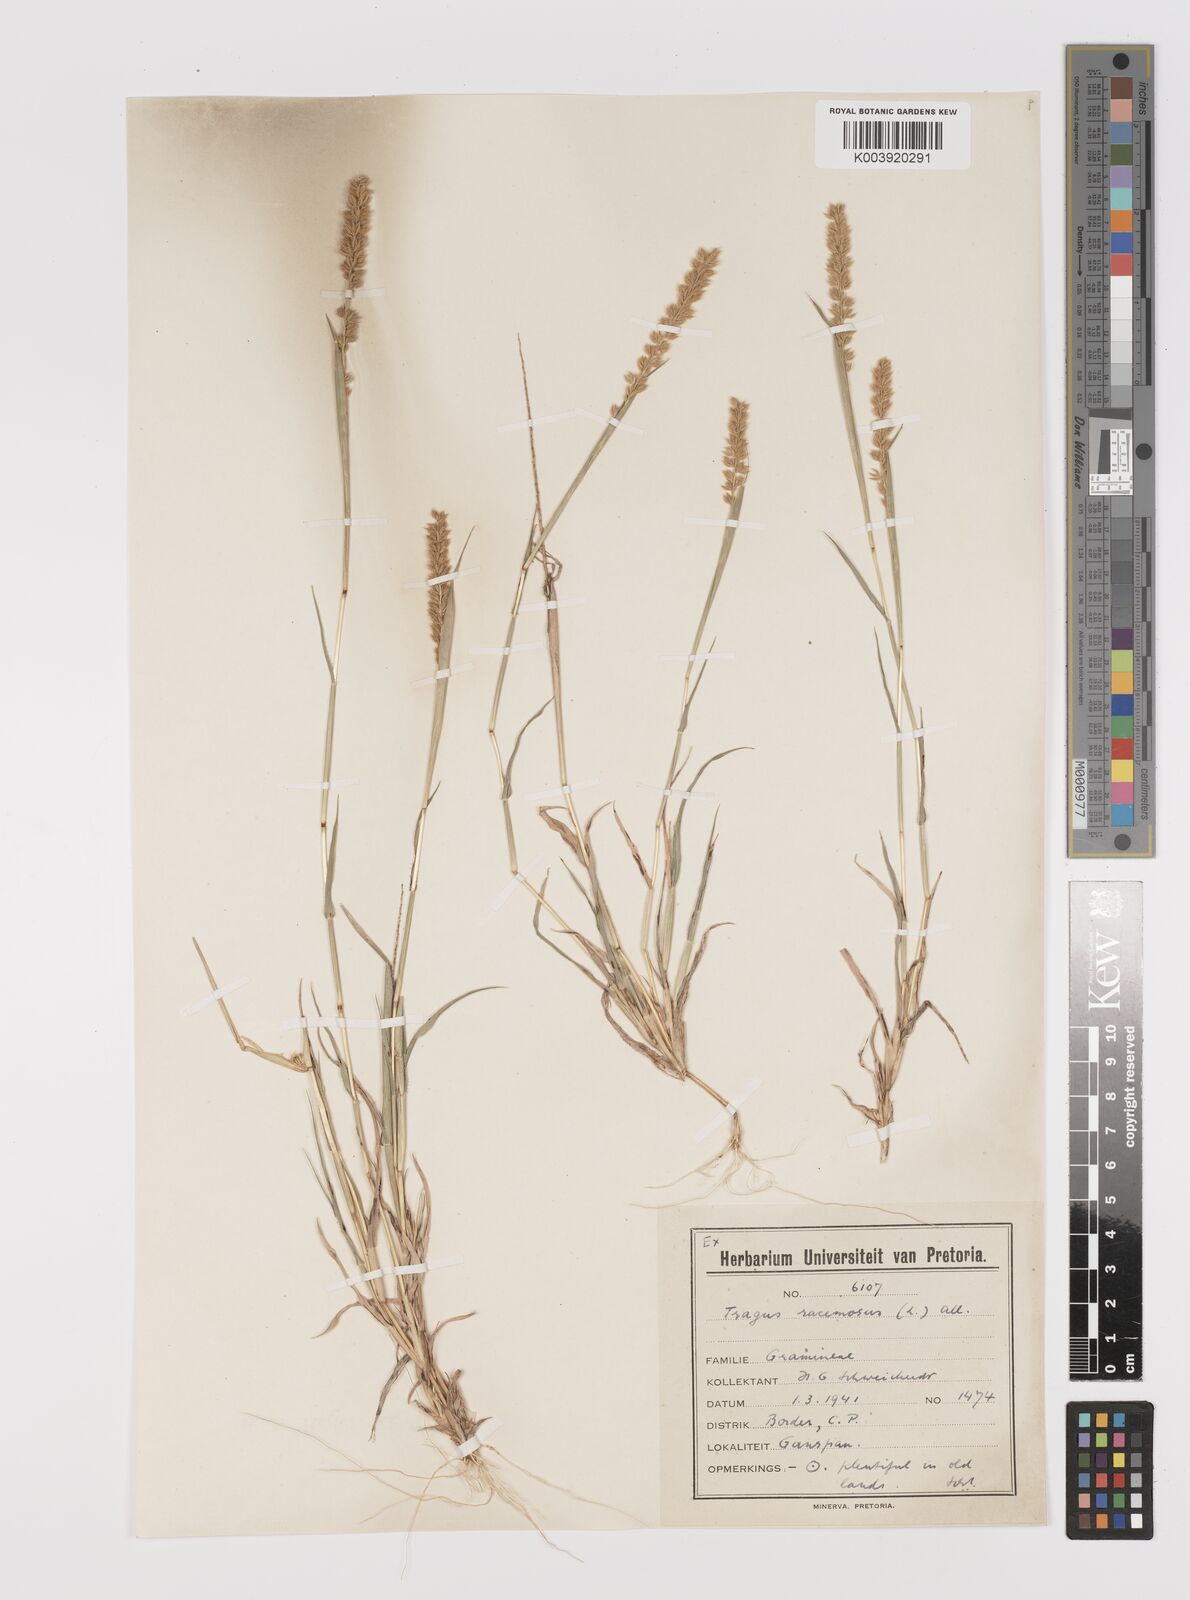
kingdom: Plantae
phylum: Tracheophyta
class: Liliopsida
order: Poales
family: Poaceae
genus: Tragus
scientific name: Tragus racemosus
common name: European bur-grass
